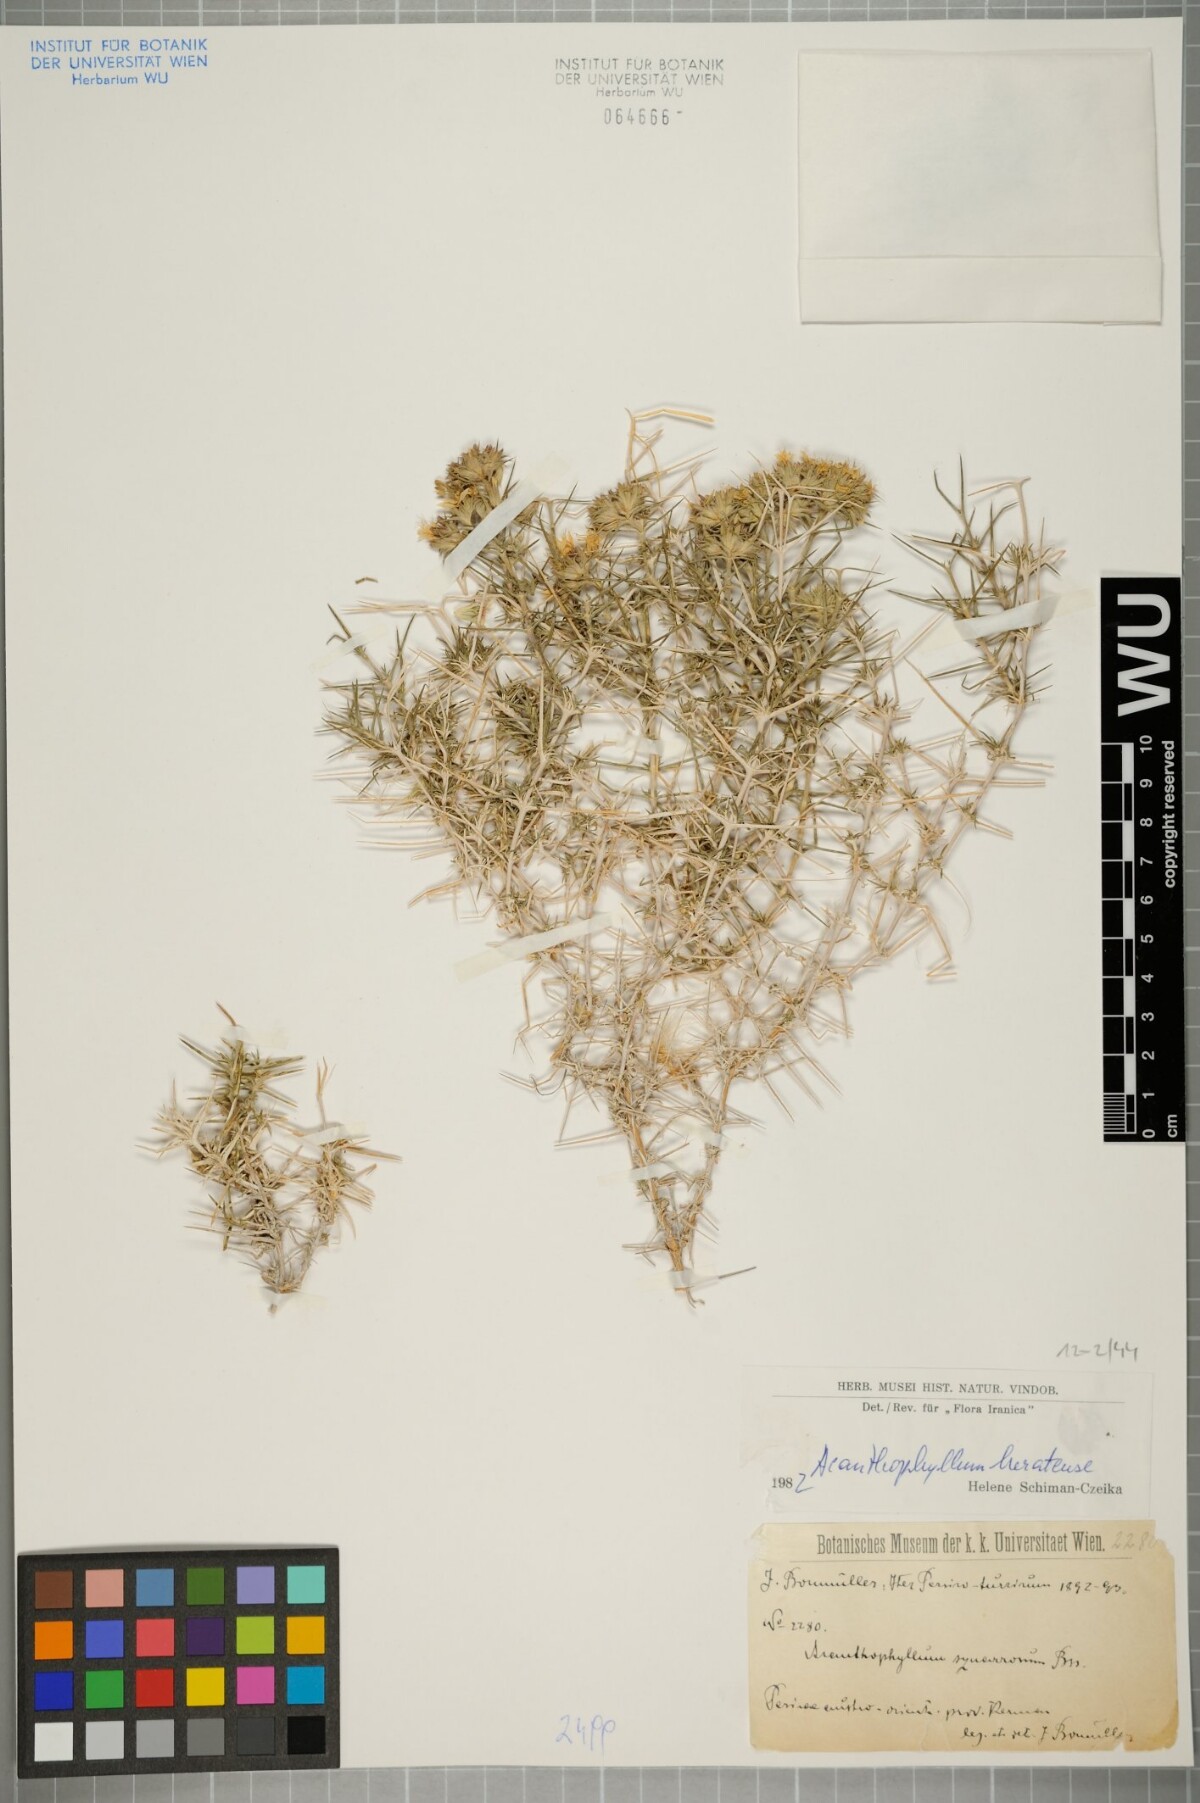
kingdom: Plantae
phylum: Tracheophyta
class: Magnoliopsida
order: Caryophyllales
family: Caryophyllaceae
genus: Acanthophyllum
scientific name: Acanthophyllum heratense
